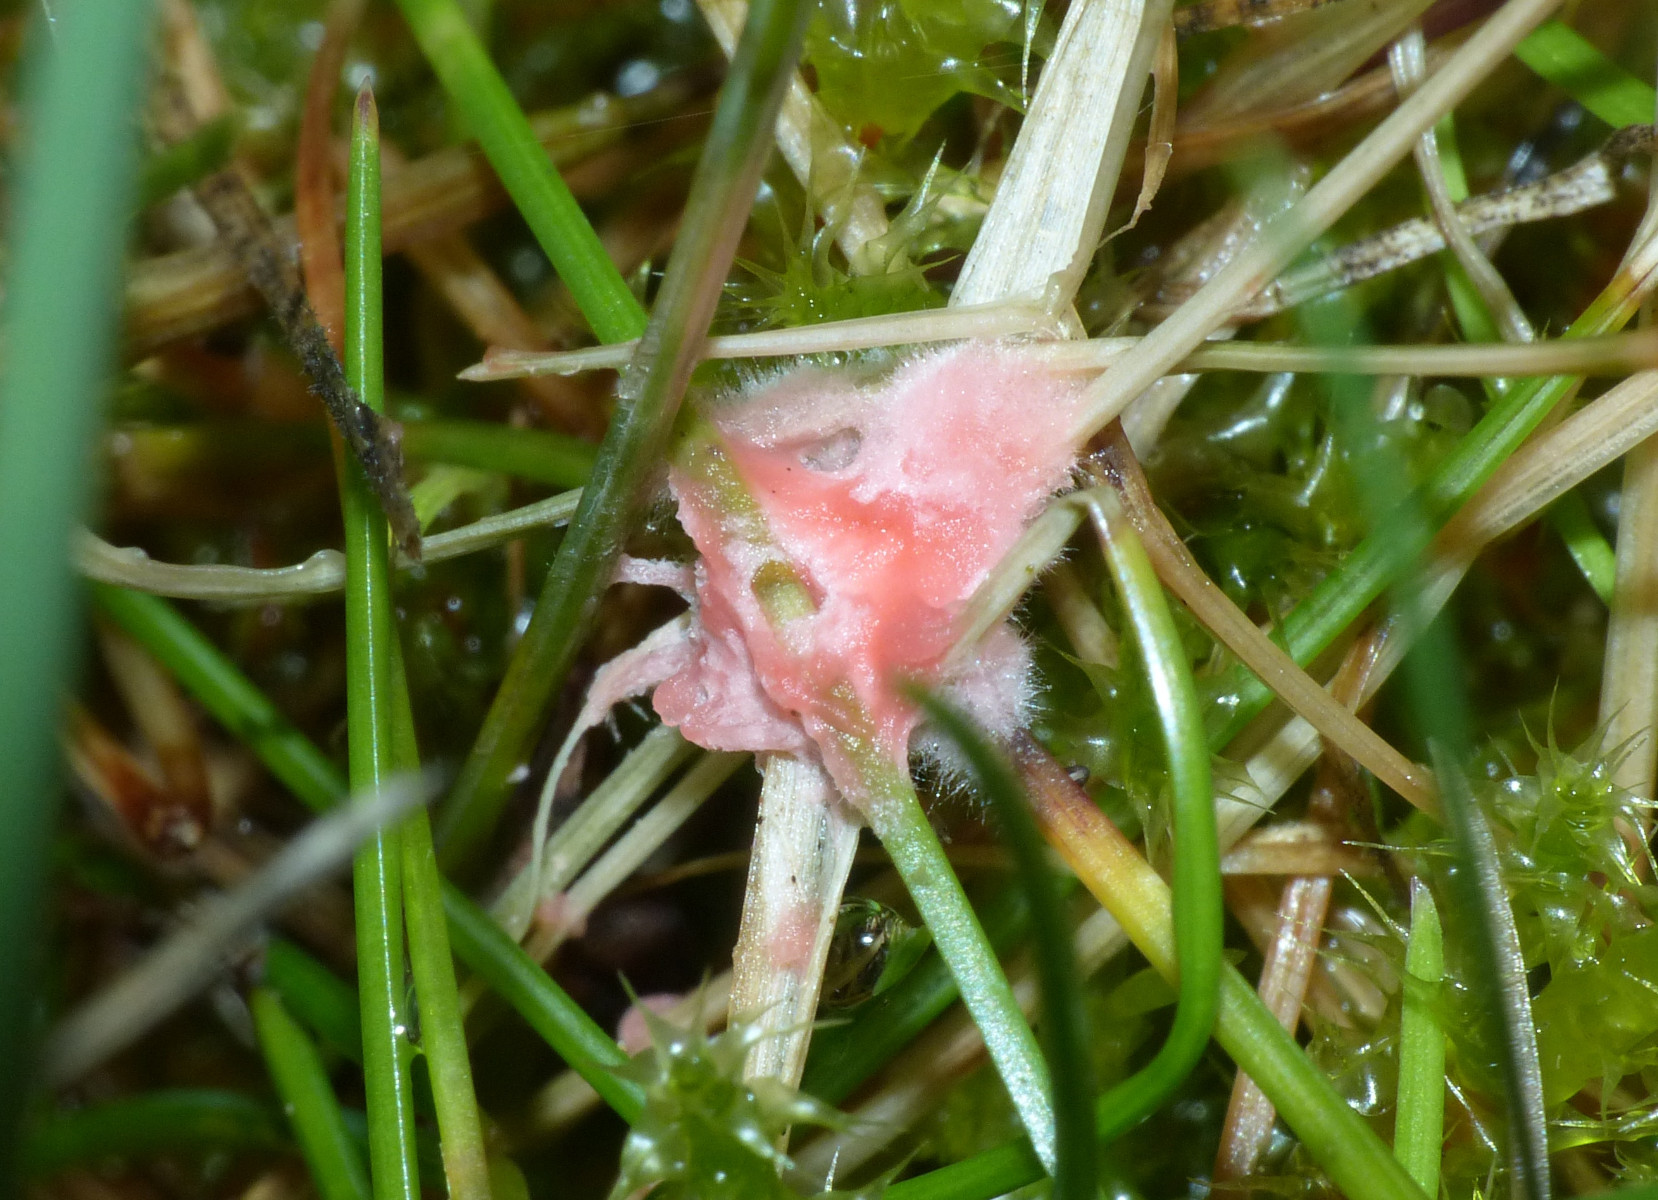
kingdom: Fungi
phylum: Basidiomycota
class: Agaricomycetes
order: Corticiales
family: Corticiaceae
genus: Laetisaria
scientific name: Laetisaria
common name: rødtråd
